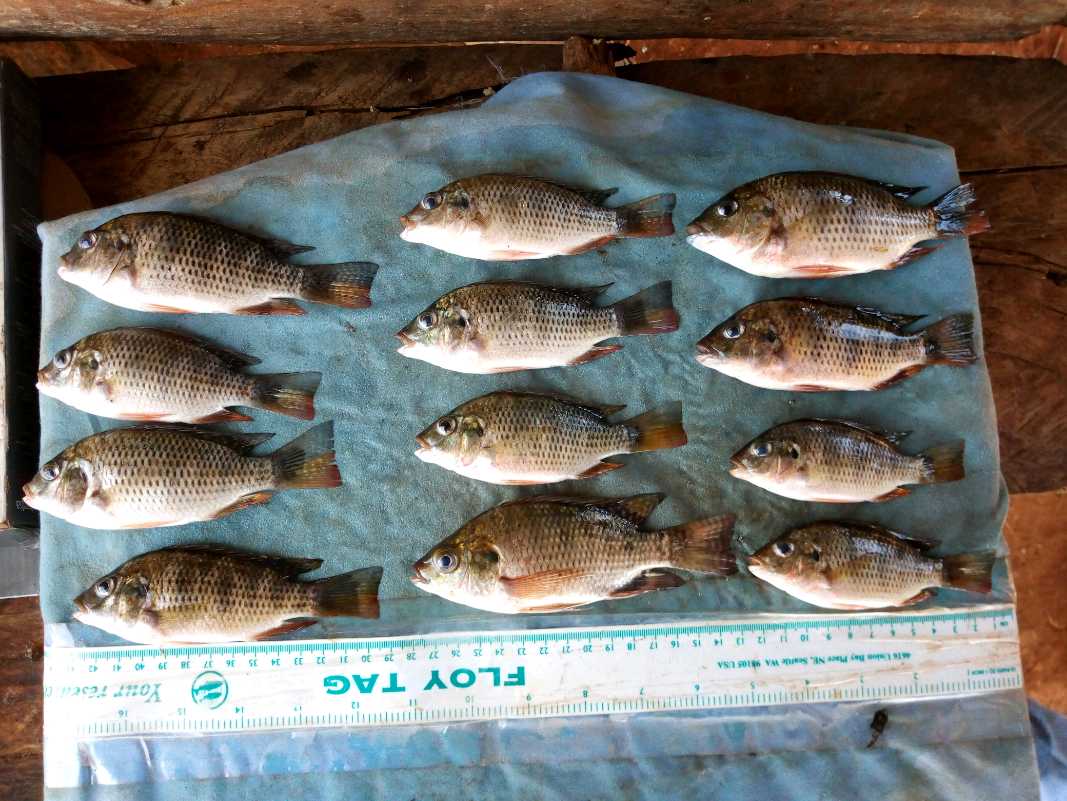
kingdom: Animalia
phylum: Chordata
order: Perciformes
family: Cichlidae
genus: Coptodon
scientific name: Coptodon rendalli
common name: Redbreast tilapia
